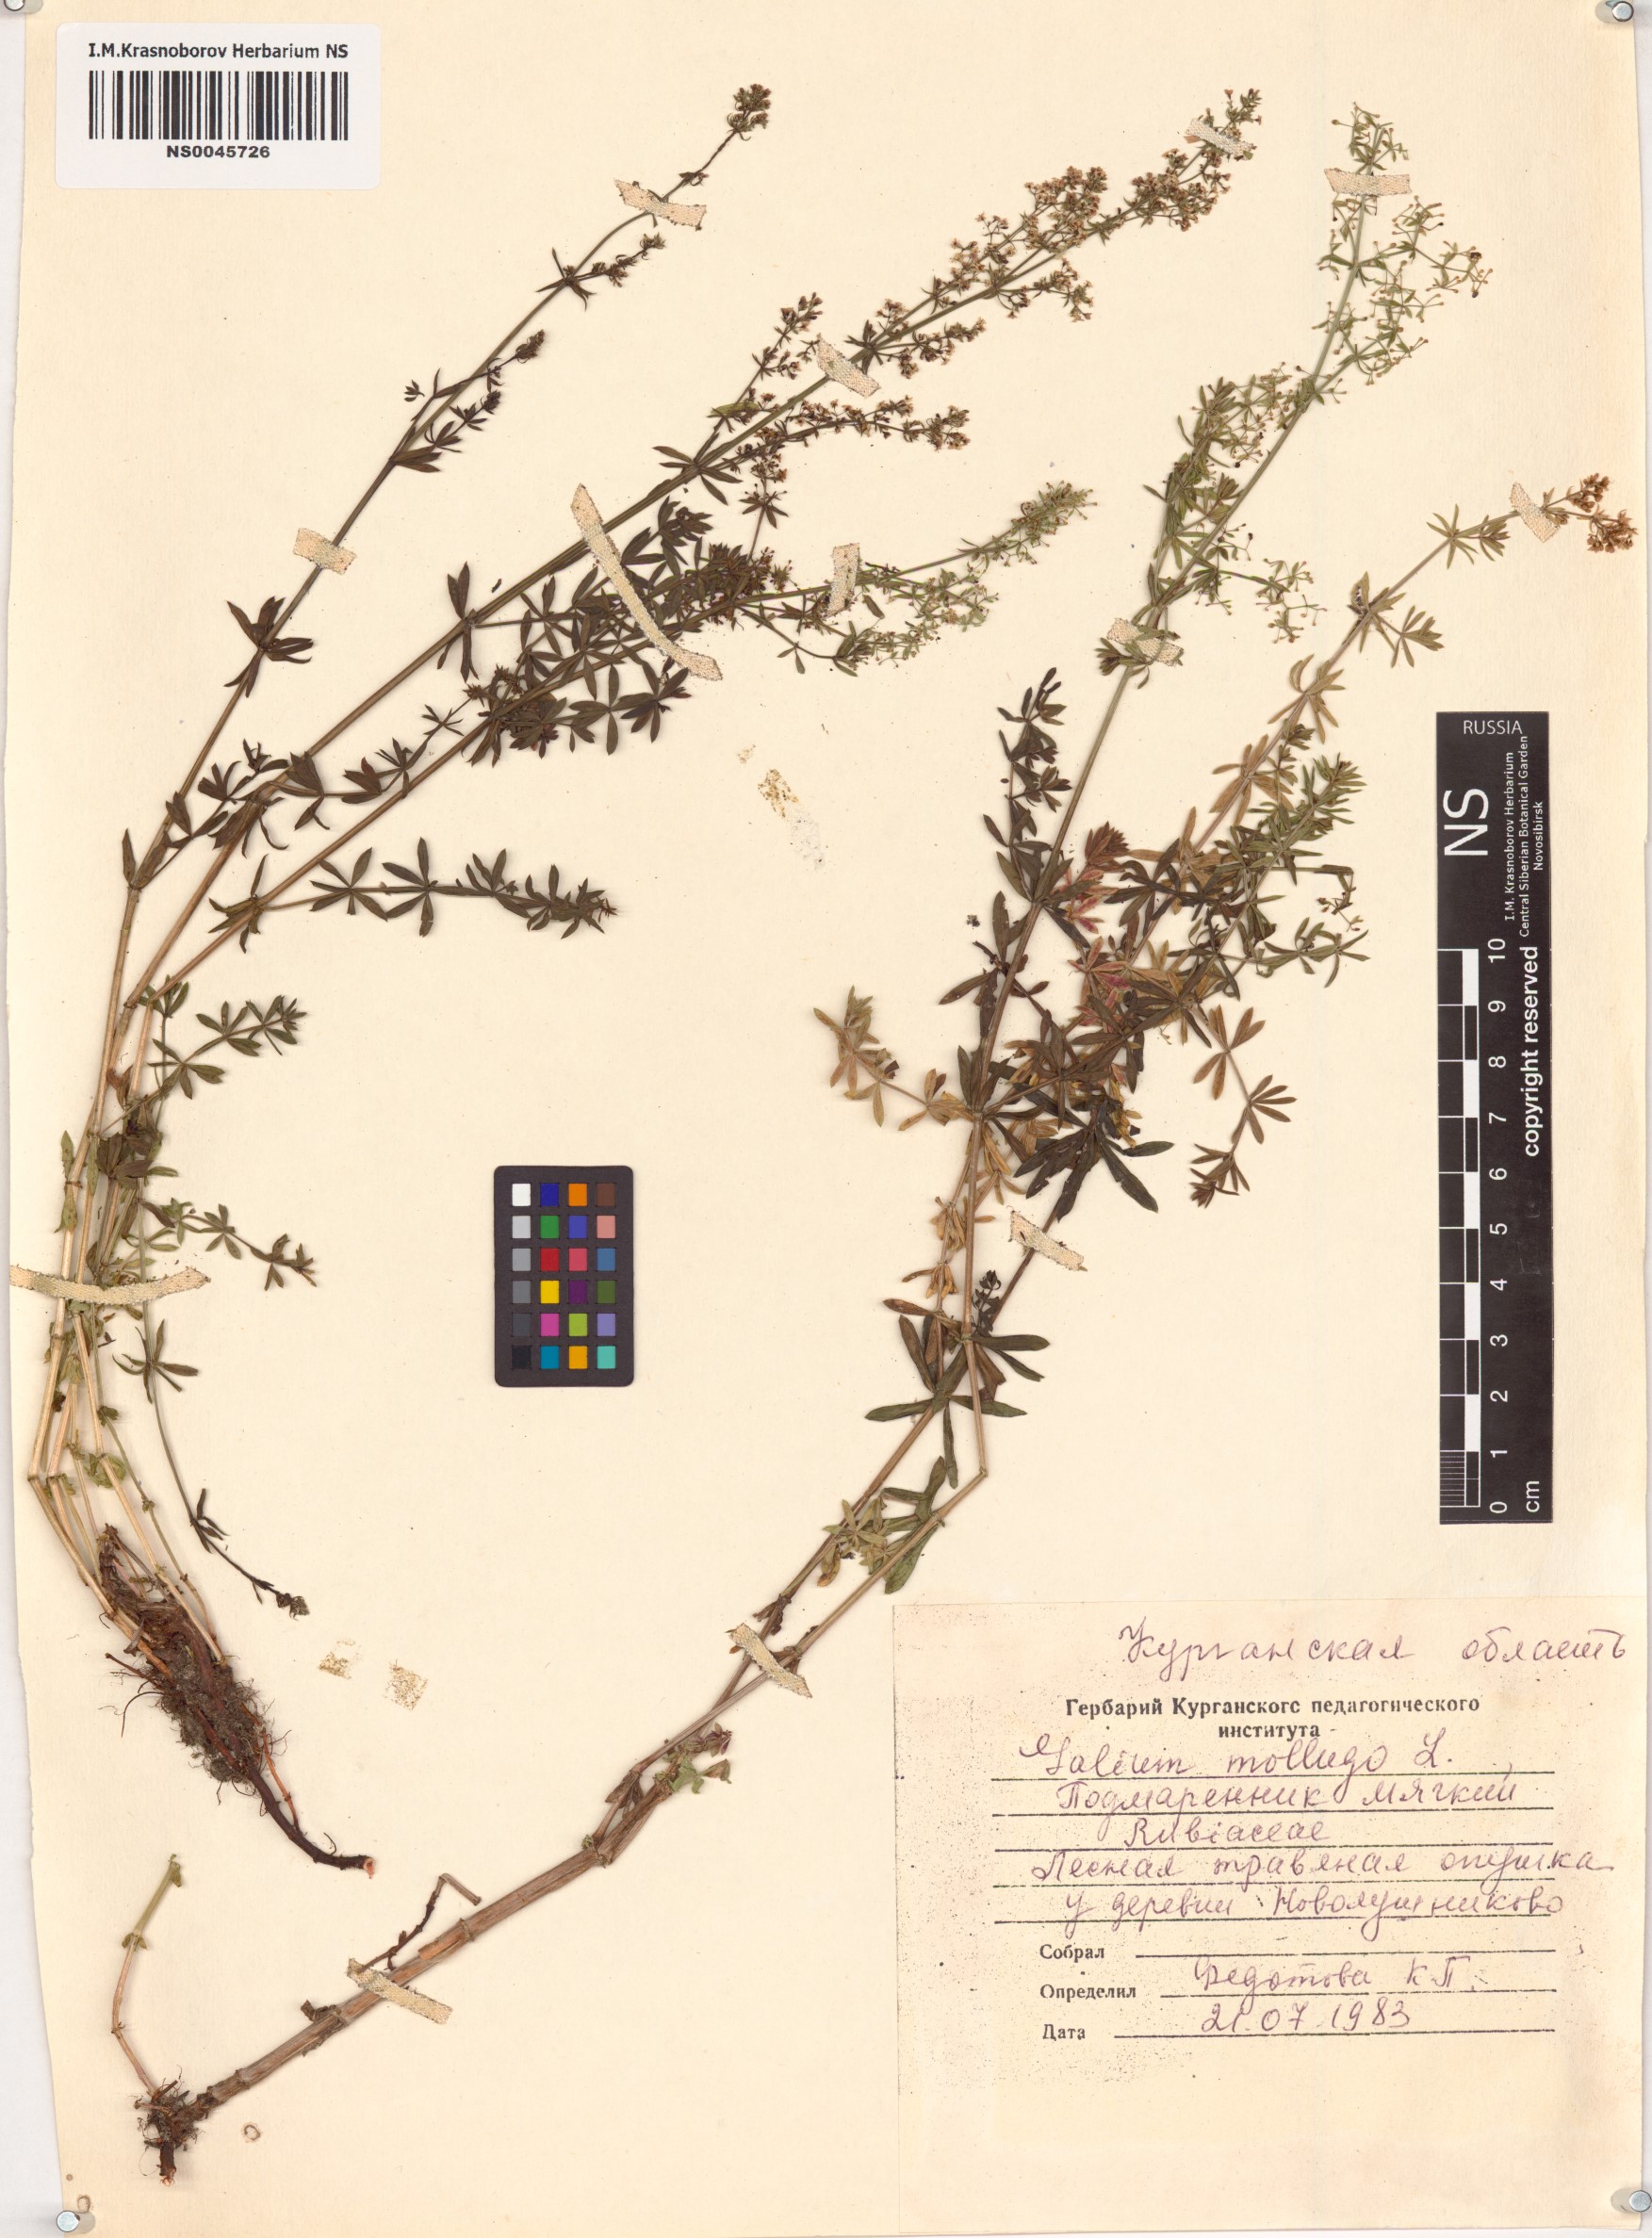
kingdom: Plantae
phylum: Tracheophyta
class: Magnoliopsida
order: Gentianales
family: Rubiaceae
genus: Galium
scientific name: Galium mollugo
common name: Hedge bedstraw
